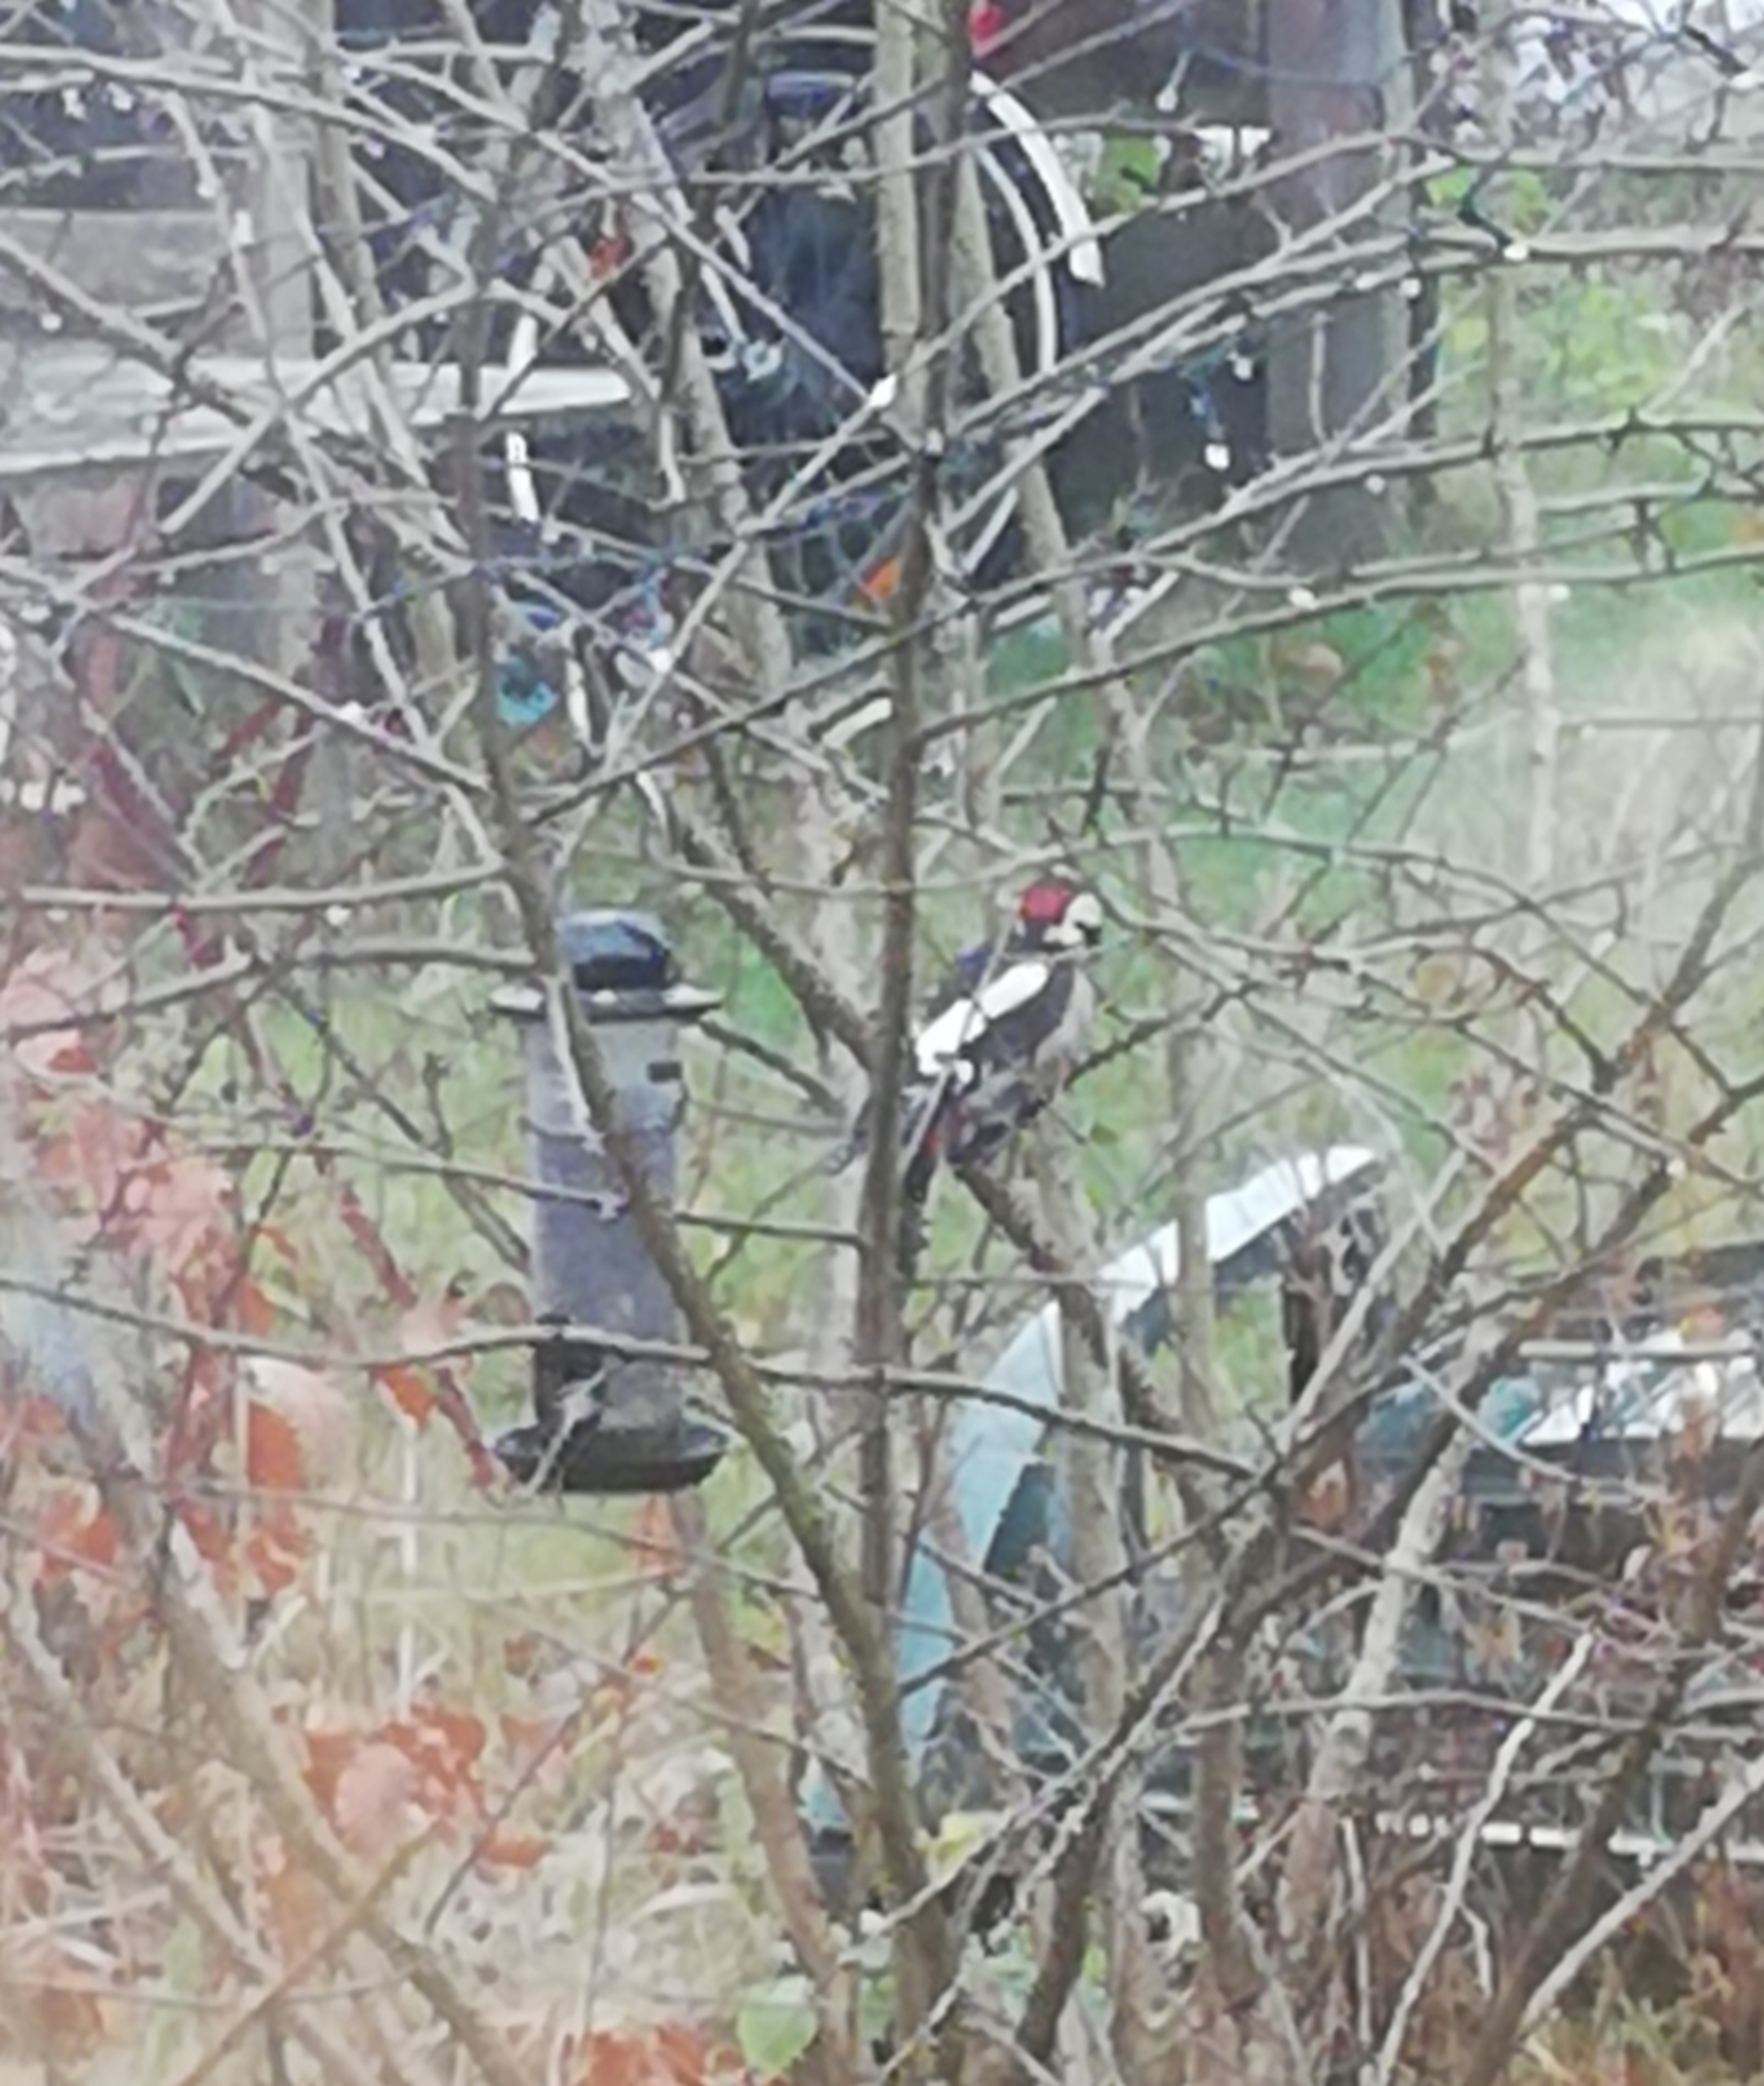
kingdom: Animalia
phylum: Chordata
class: Aves
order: Piciformes
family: Picidae
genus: Dendrocopos
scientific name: Dendrocopos major
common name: Stor flagspætte
